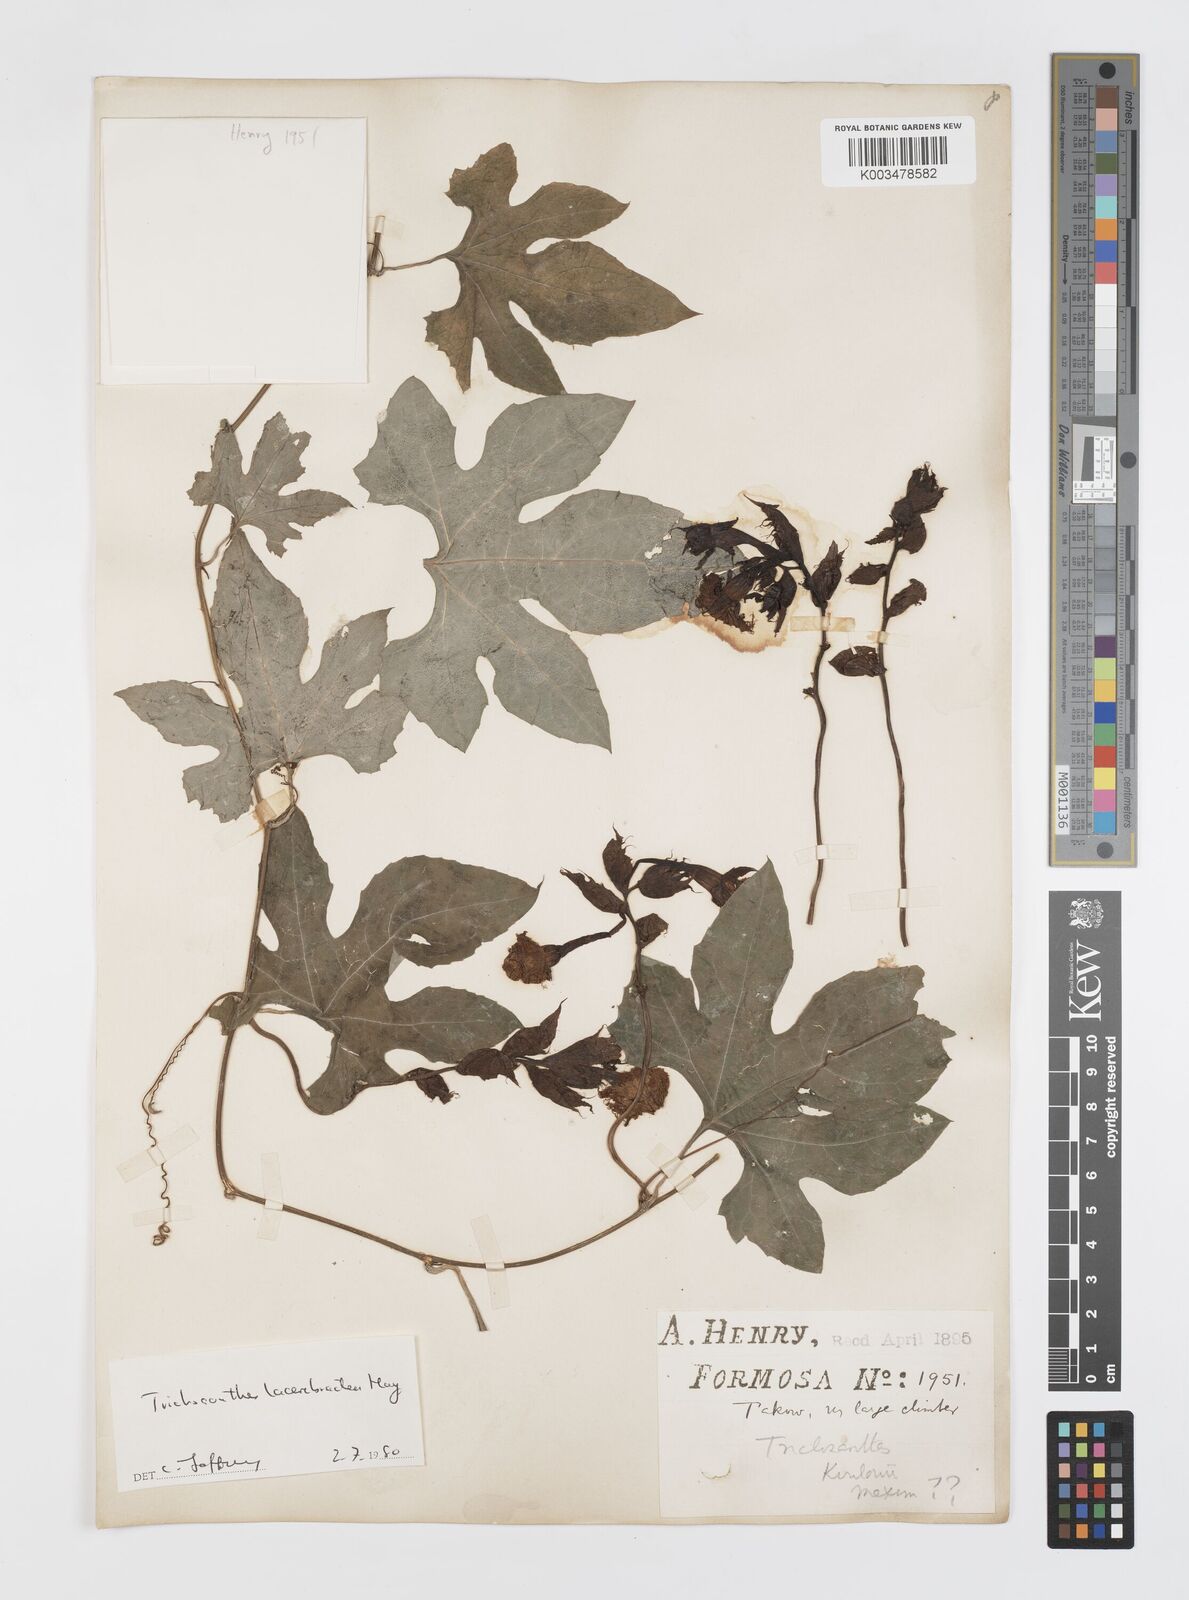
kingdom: Plantae
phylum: Tracheophyta
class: Magnoliopsida
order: Cucurbitales
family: Cucurbitaceae
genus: Trichosanthes
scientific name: Trichosanthes laceribractea
